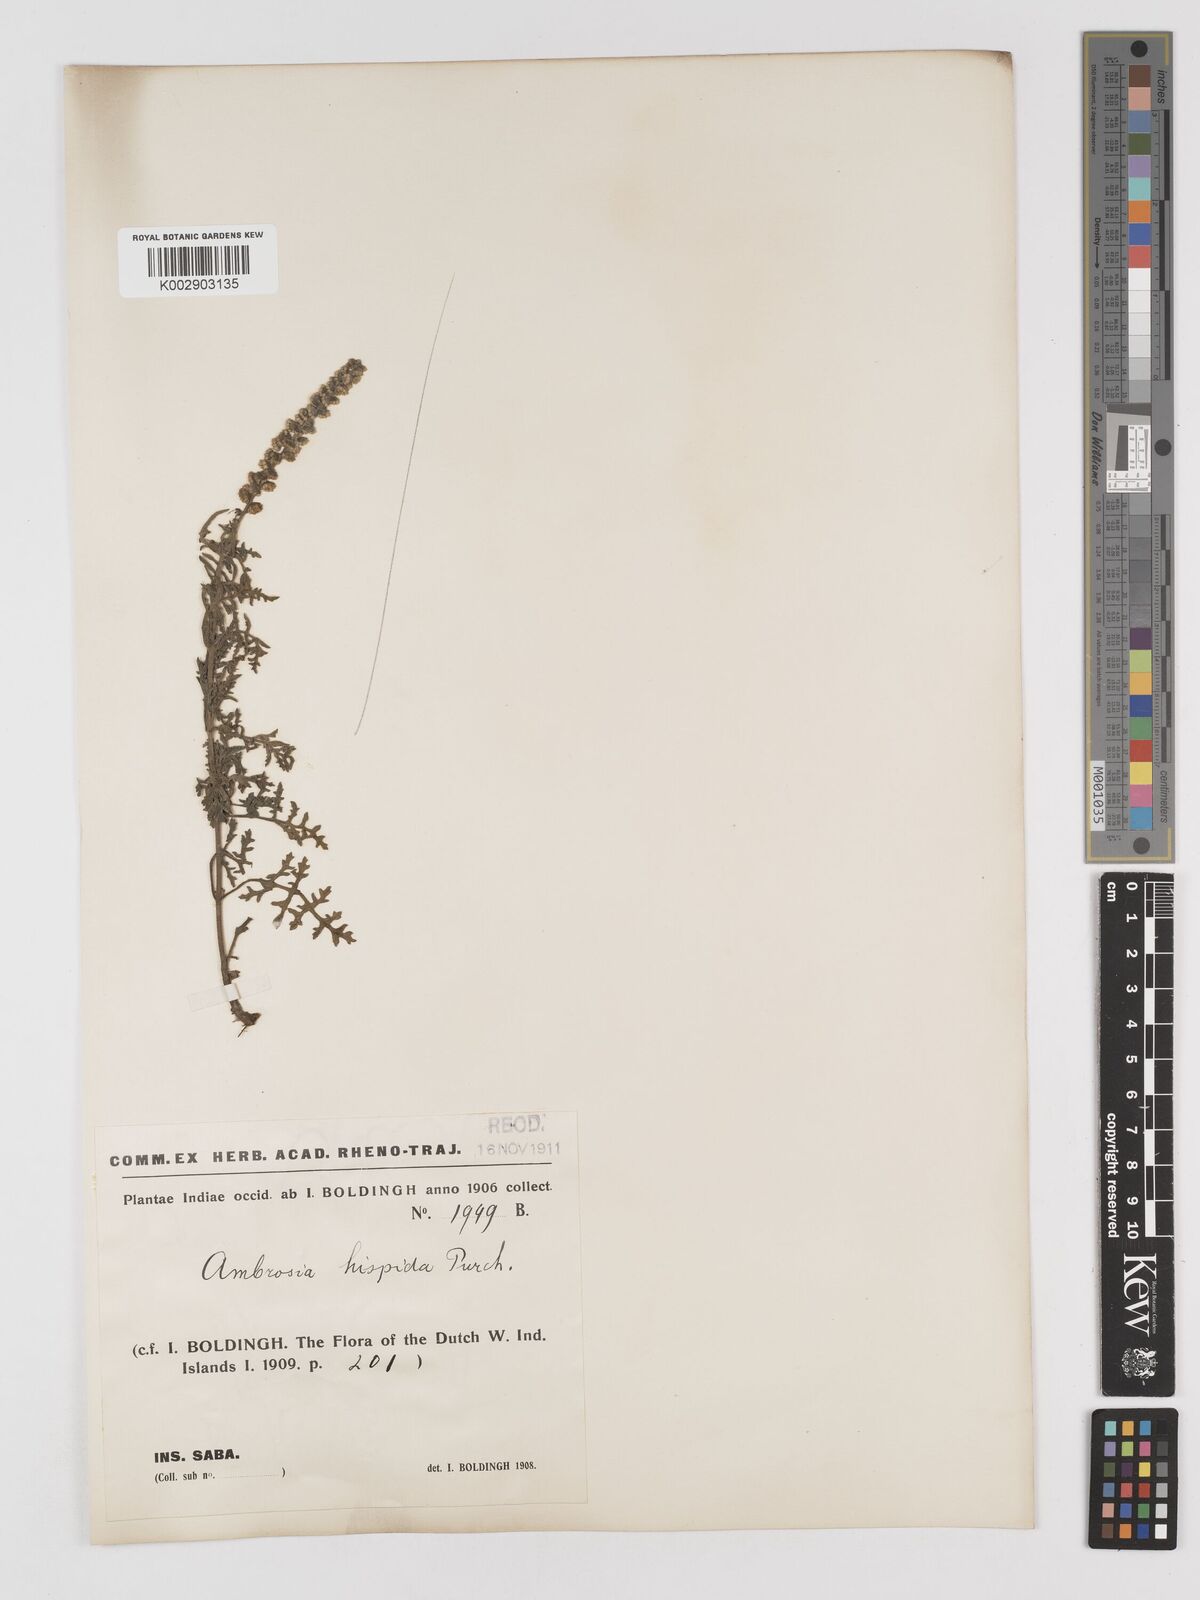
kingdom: Plantae
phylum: Tracheophyta
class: Magnoliopsida
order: Asterales
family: Asteraceae
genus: Ambrosia
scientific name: Ambrosia hispida
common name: Coastal ragweed
